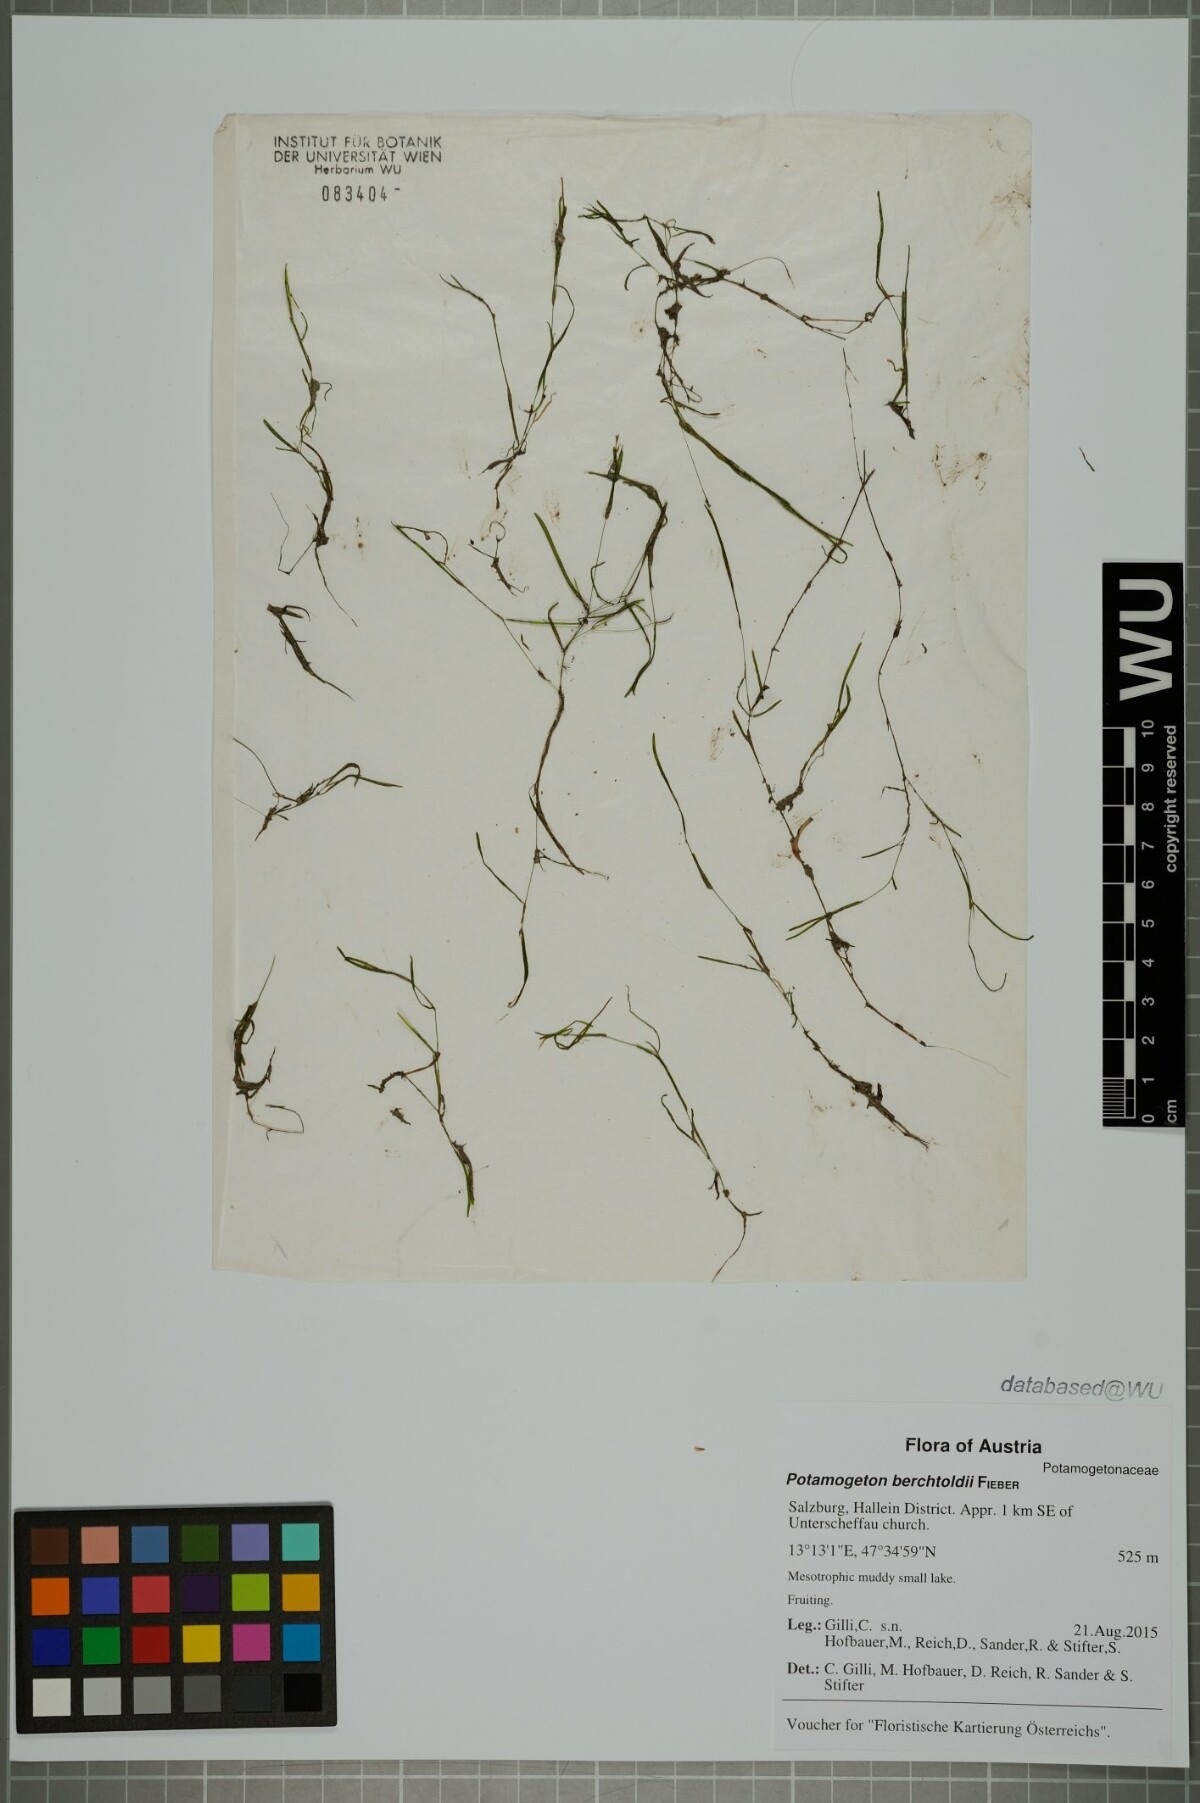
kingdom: Plantae
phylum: Tracheophyta
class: Liliopsida
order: Alismatales
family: Potamogetonaceae
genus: Potamogeton
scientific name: Potamogeton berchtoldii
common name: Small pondweed
